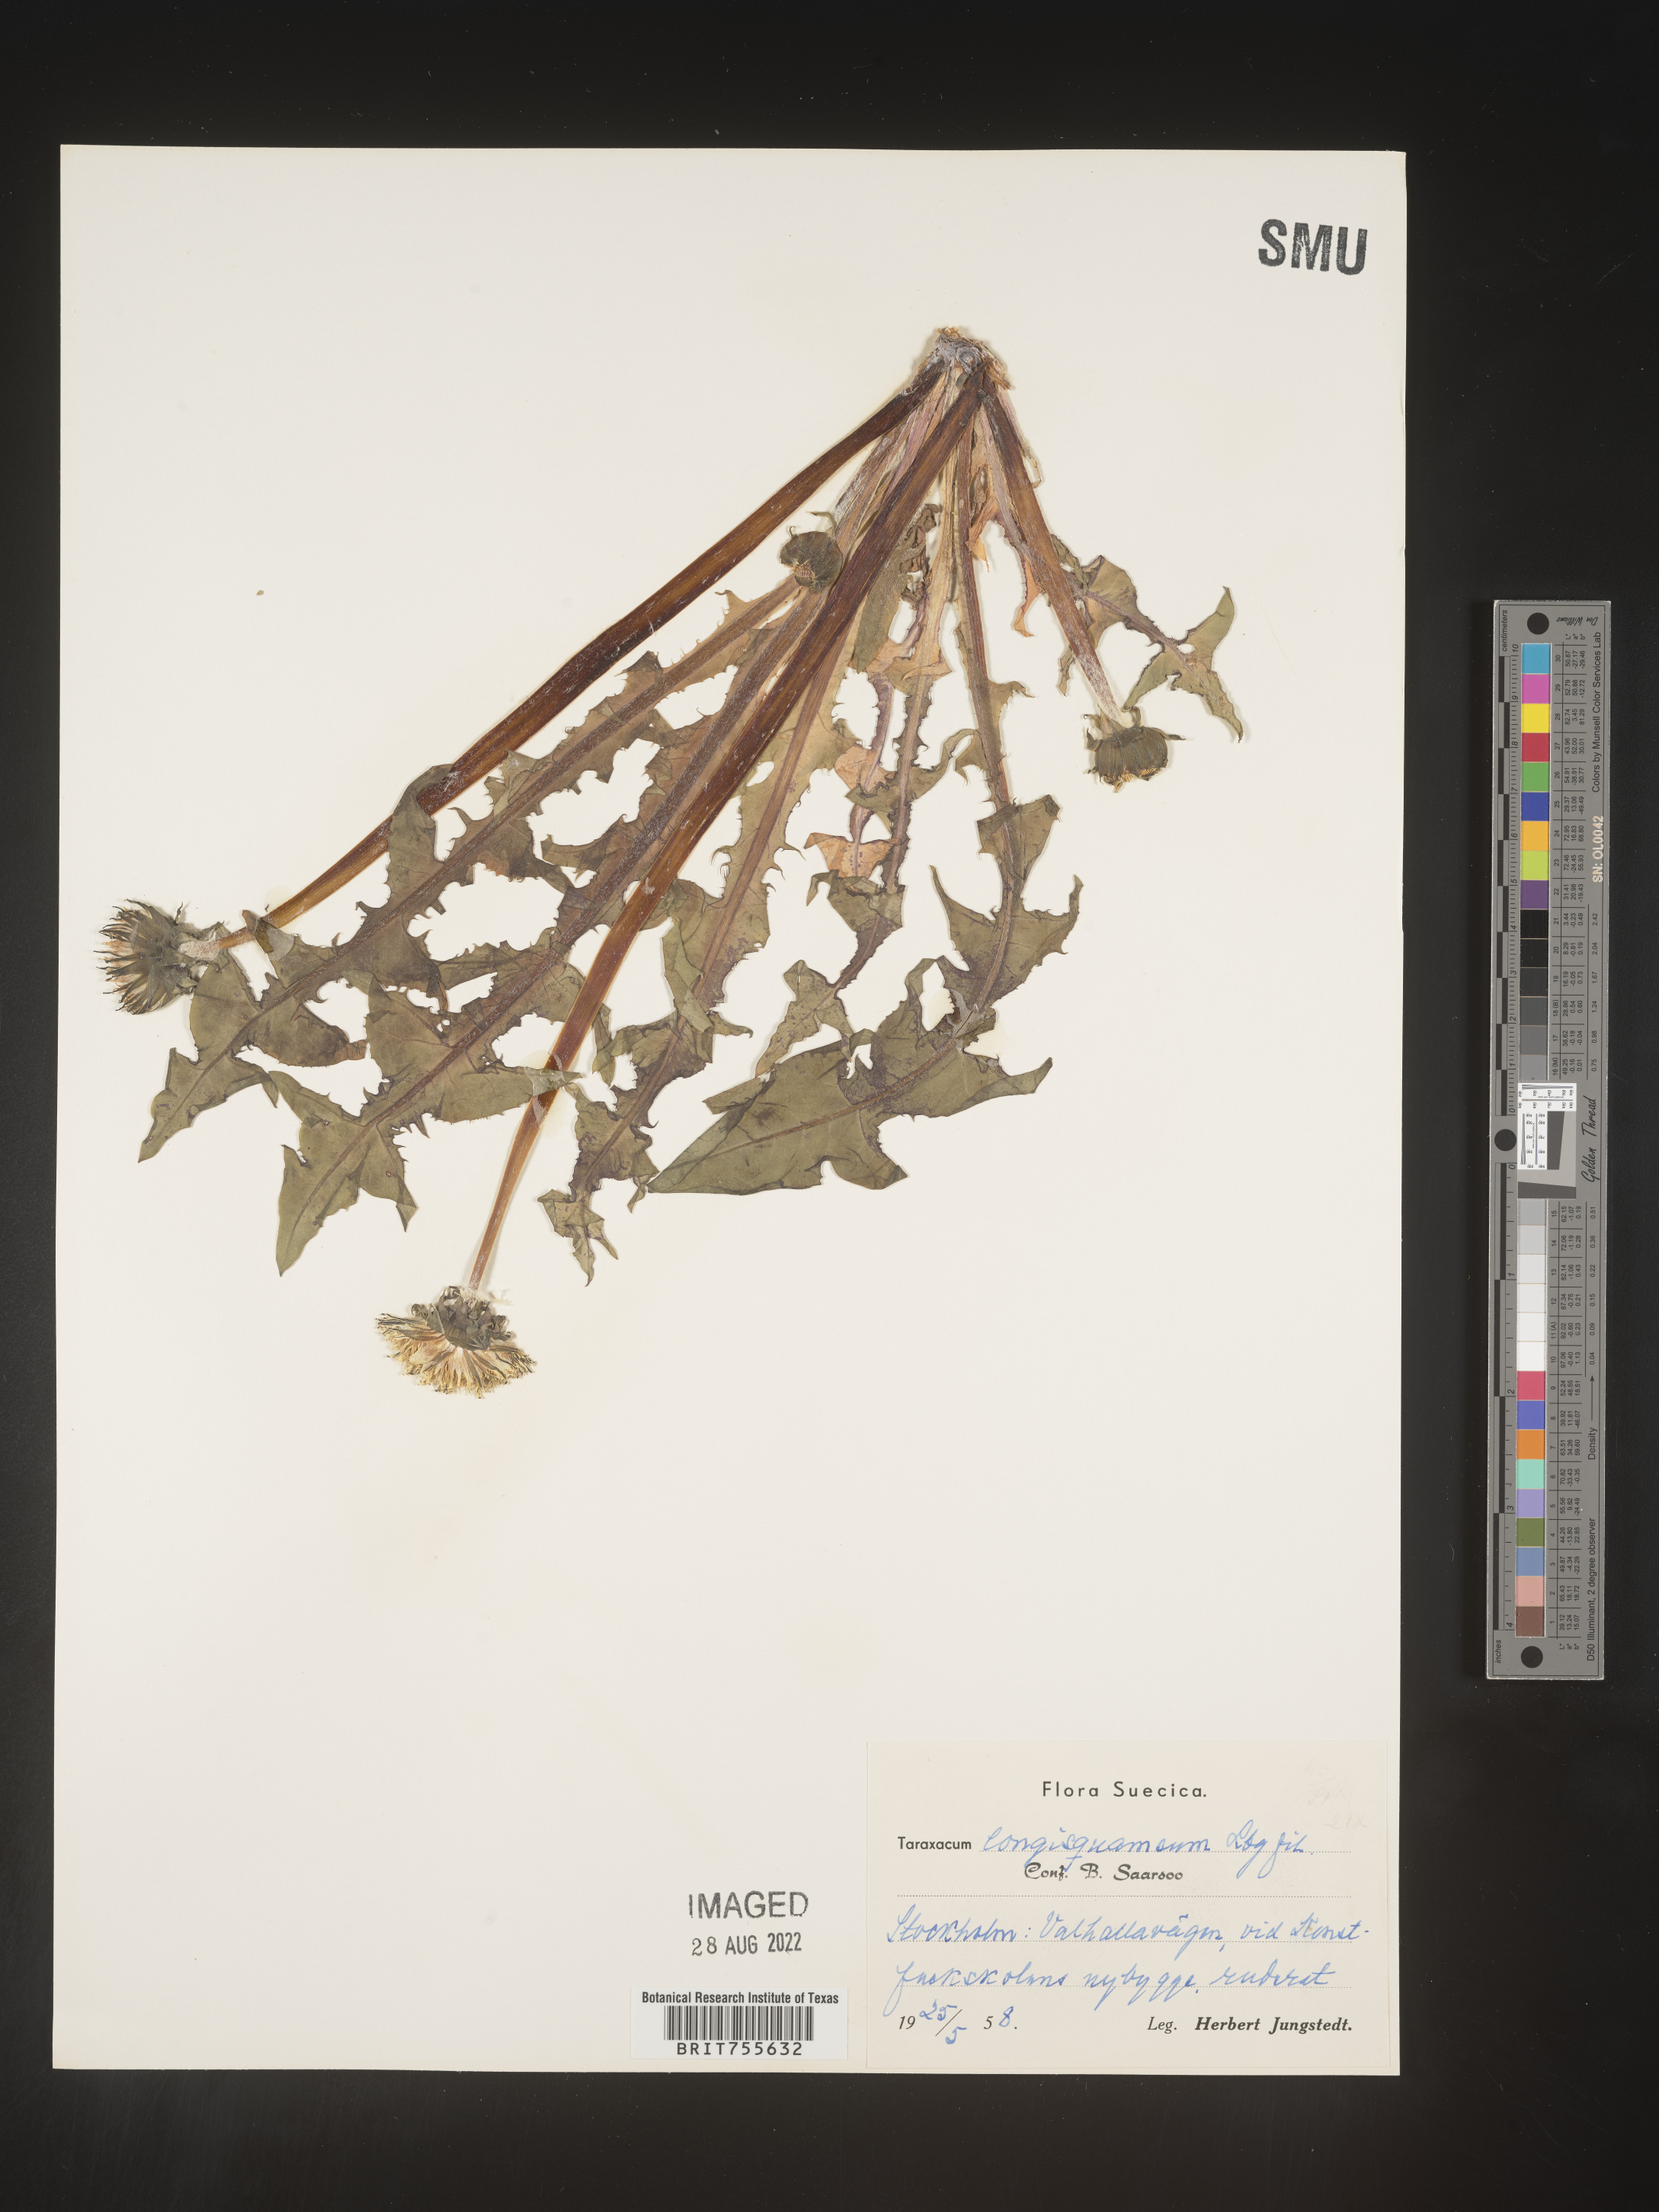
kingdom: Plantae
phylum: Tracheophyta
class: Magnoliopsida
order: Asterales
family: Asteraceae
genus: Taraxacum
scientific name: Taraxacum
